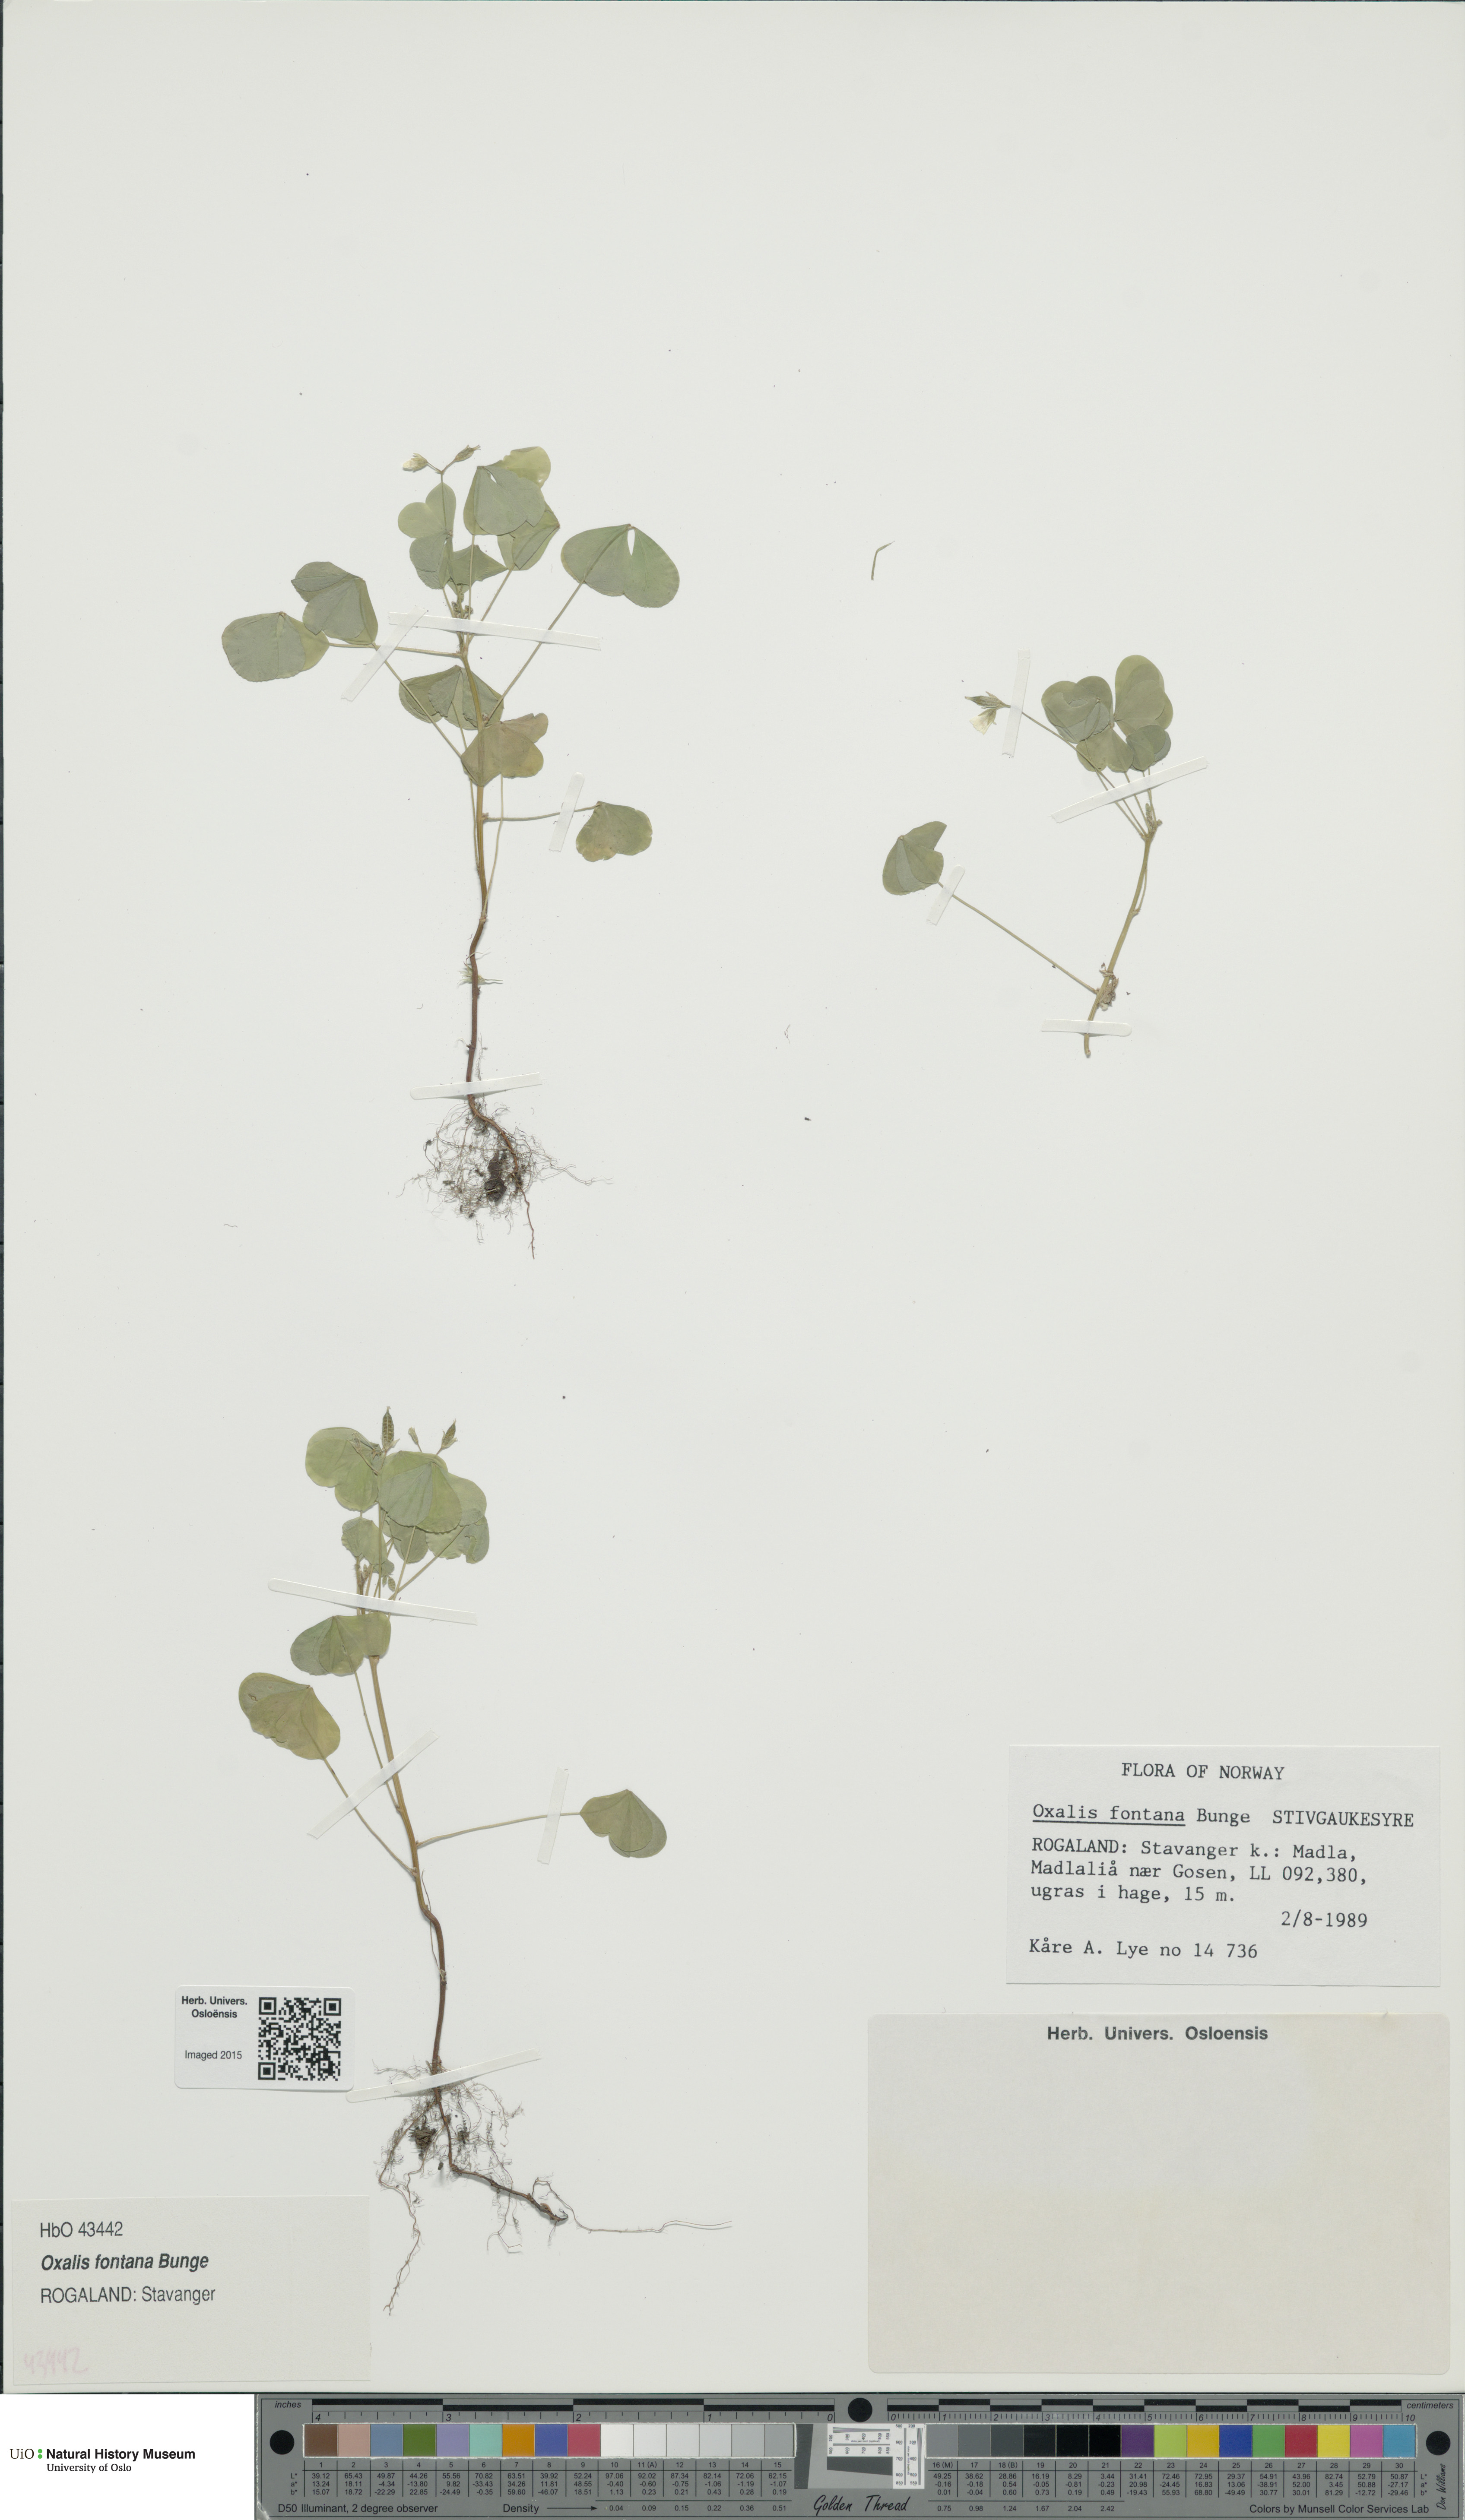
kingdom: Plantae
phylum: Tracheophyta
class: Magnoliopsida
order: Oxalidales
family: Oxalidaceae
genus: Oxalis
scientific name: Oxalis stricta
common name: Upright yellow-sorrel
